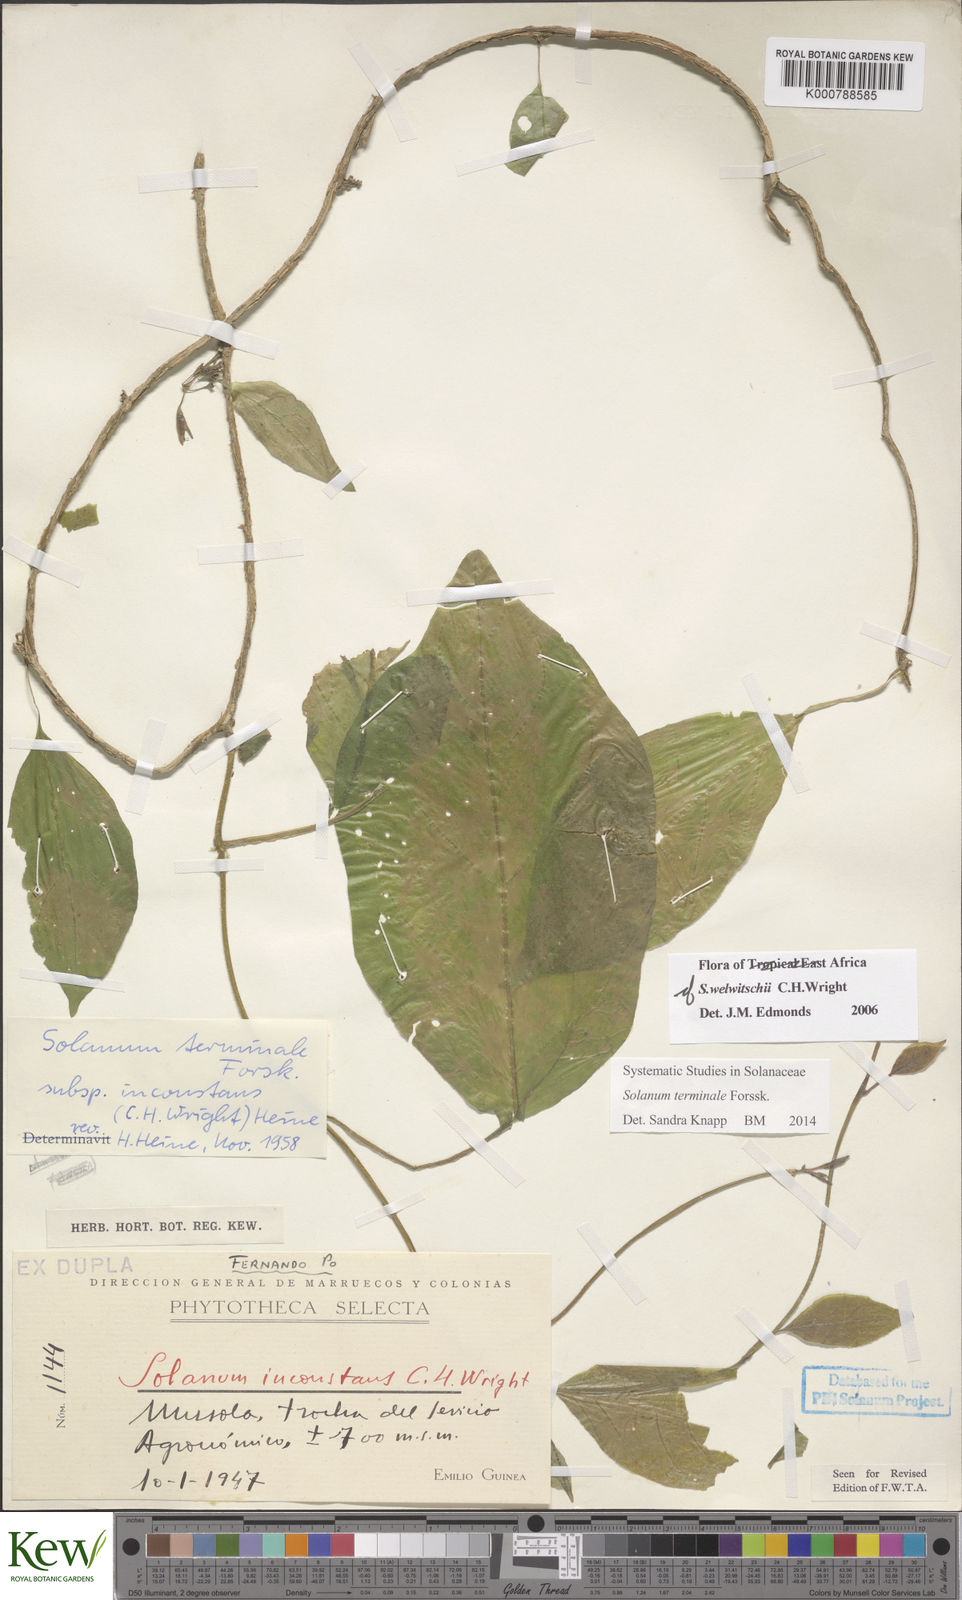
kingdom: Plantae
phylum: Tracheophyta
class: Magnoliopsida
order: Solanales
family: Solanaceae
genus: Solanum
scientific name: Solanum terminale
